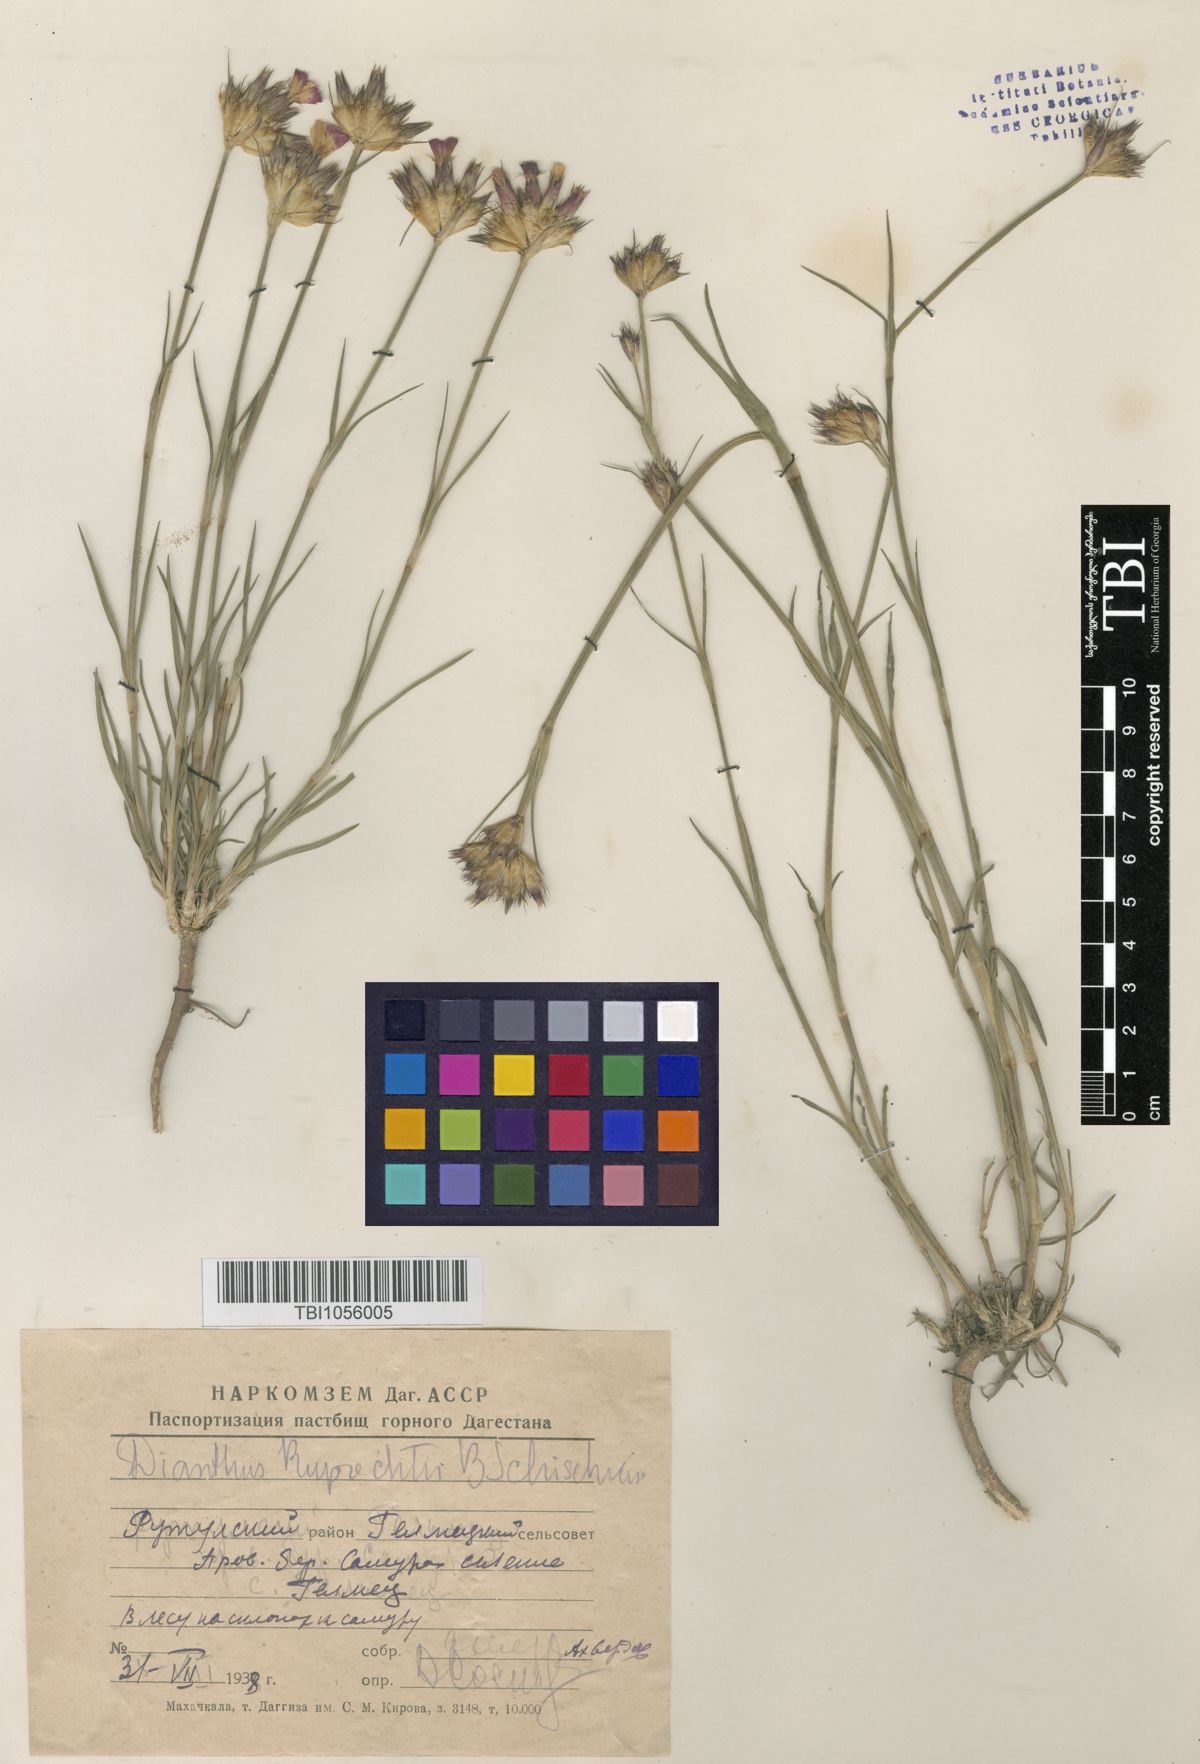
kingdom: Plantae
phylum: Tracheophyta
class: Magnoliopsida
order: Caryophyllales
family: Caryophyllaceae
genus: Dianthus
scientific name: Dianthus ruprechtii
